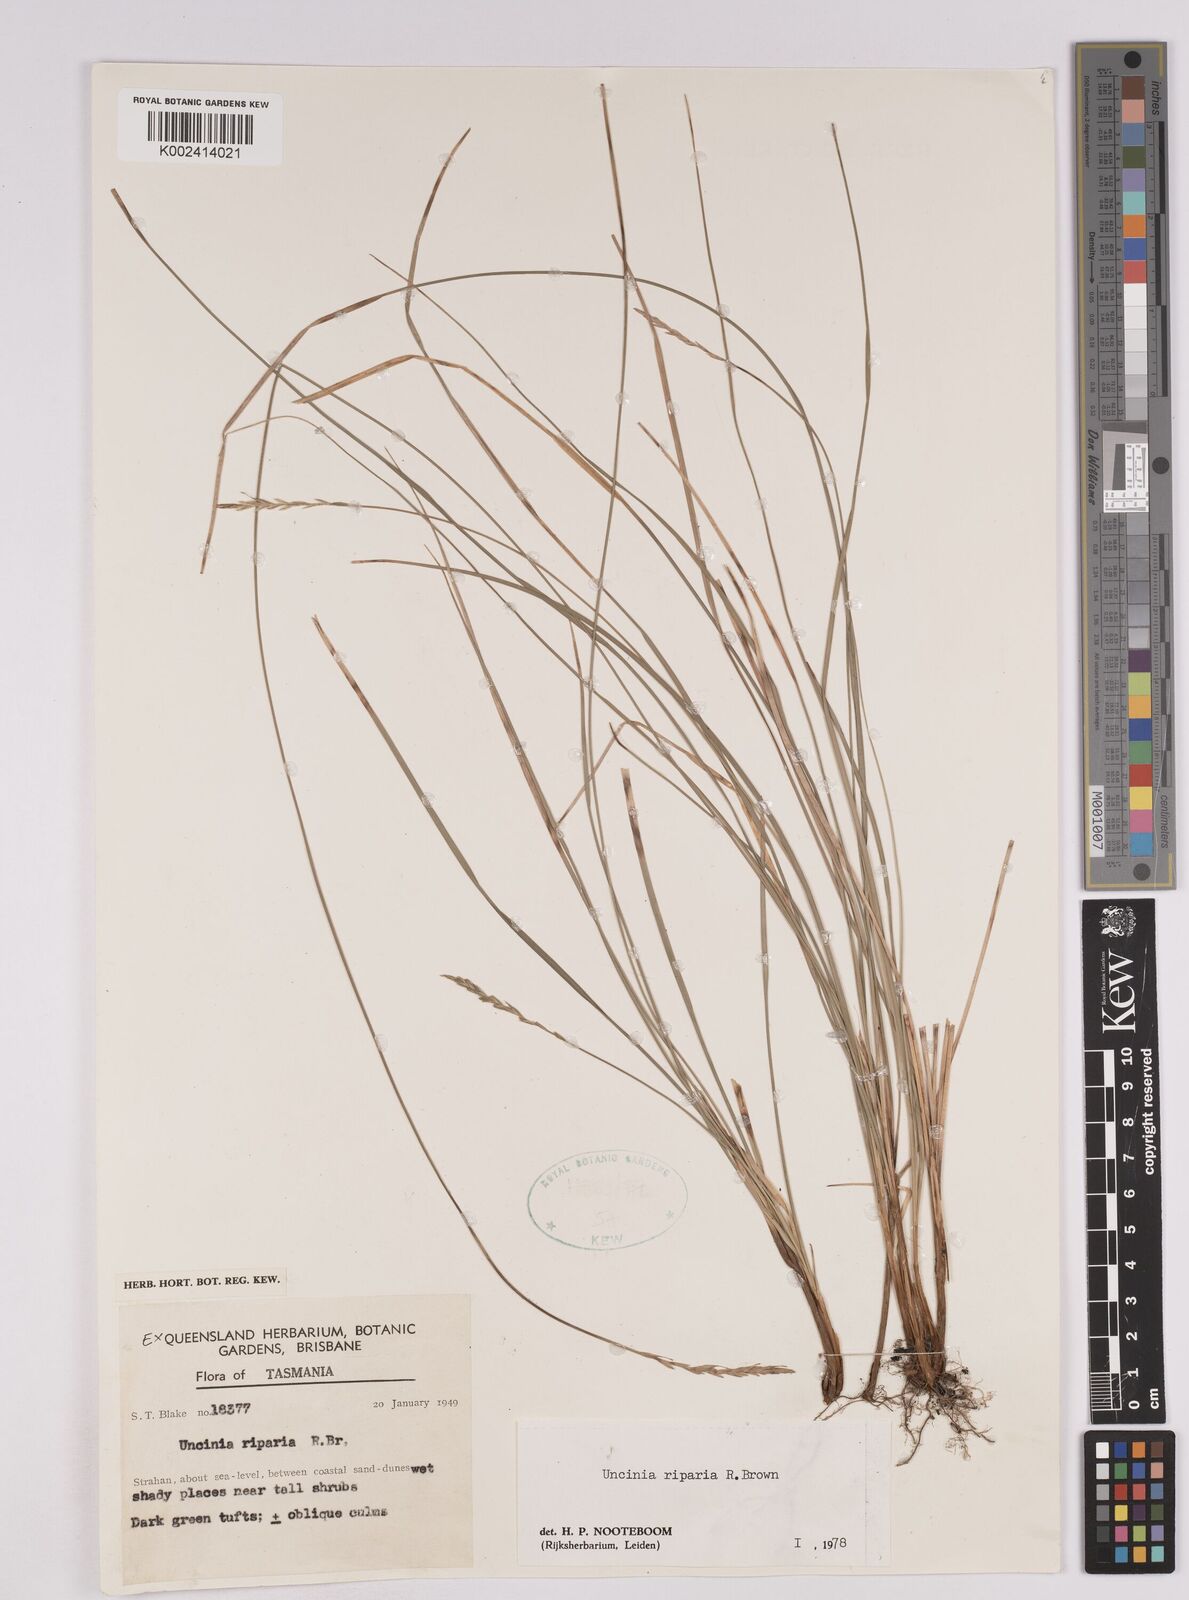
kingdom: Plantae
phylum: Tracheophyta
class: Liliopsida
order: Poales
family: Cyperaceae
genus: Carex
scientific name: Carex umbricola
